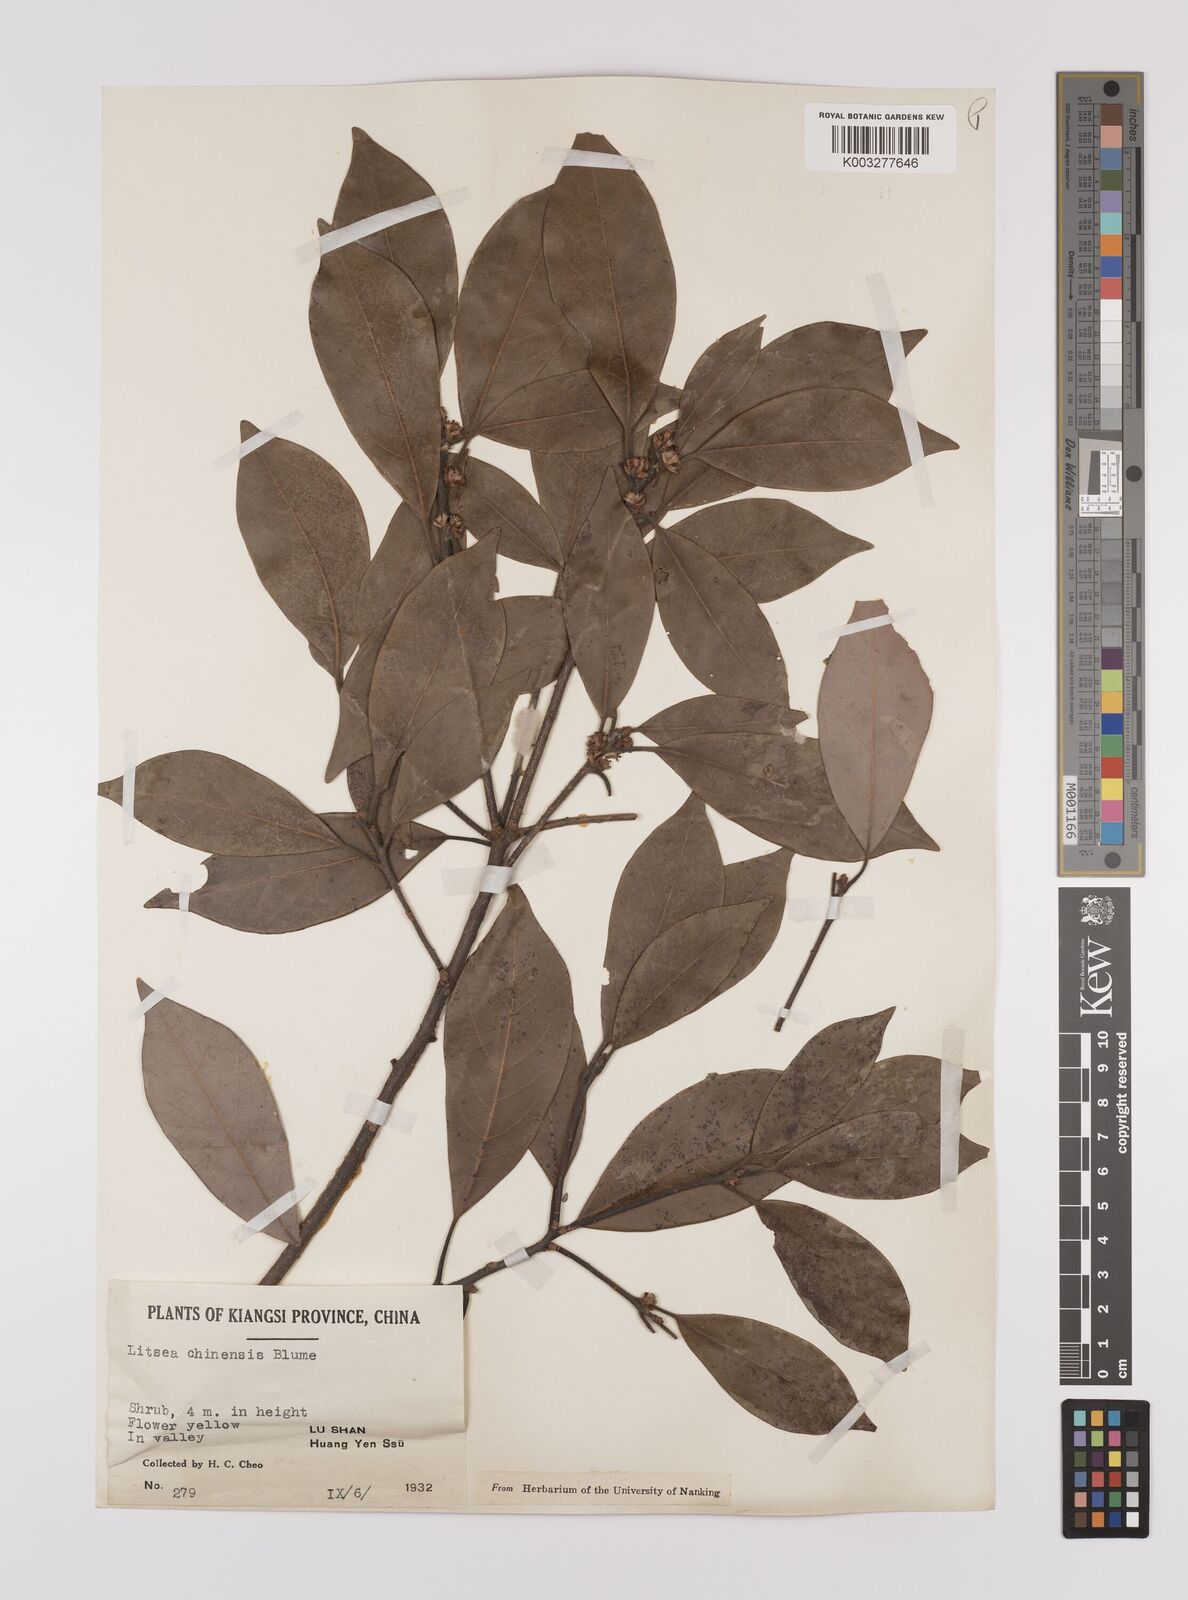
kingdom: Plantae
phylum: Tracheophyta
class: Magnoliopsida
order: Laurales
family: Lauraceae
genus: Litsea
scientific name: Litsea rotundifolia
